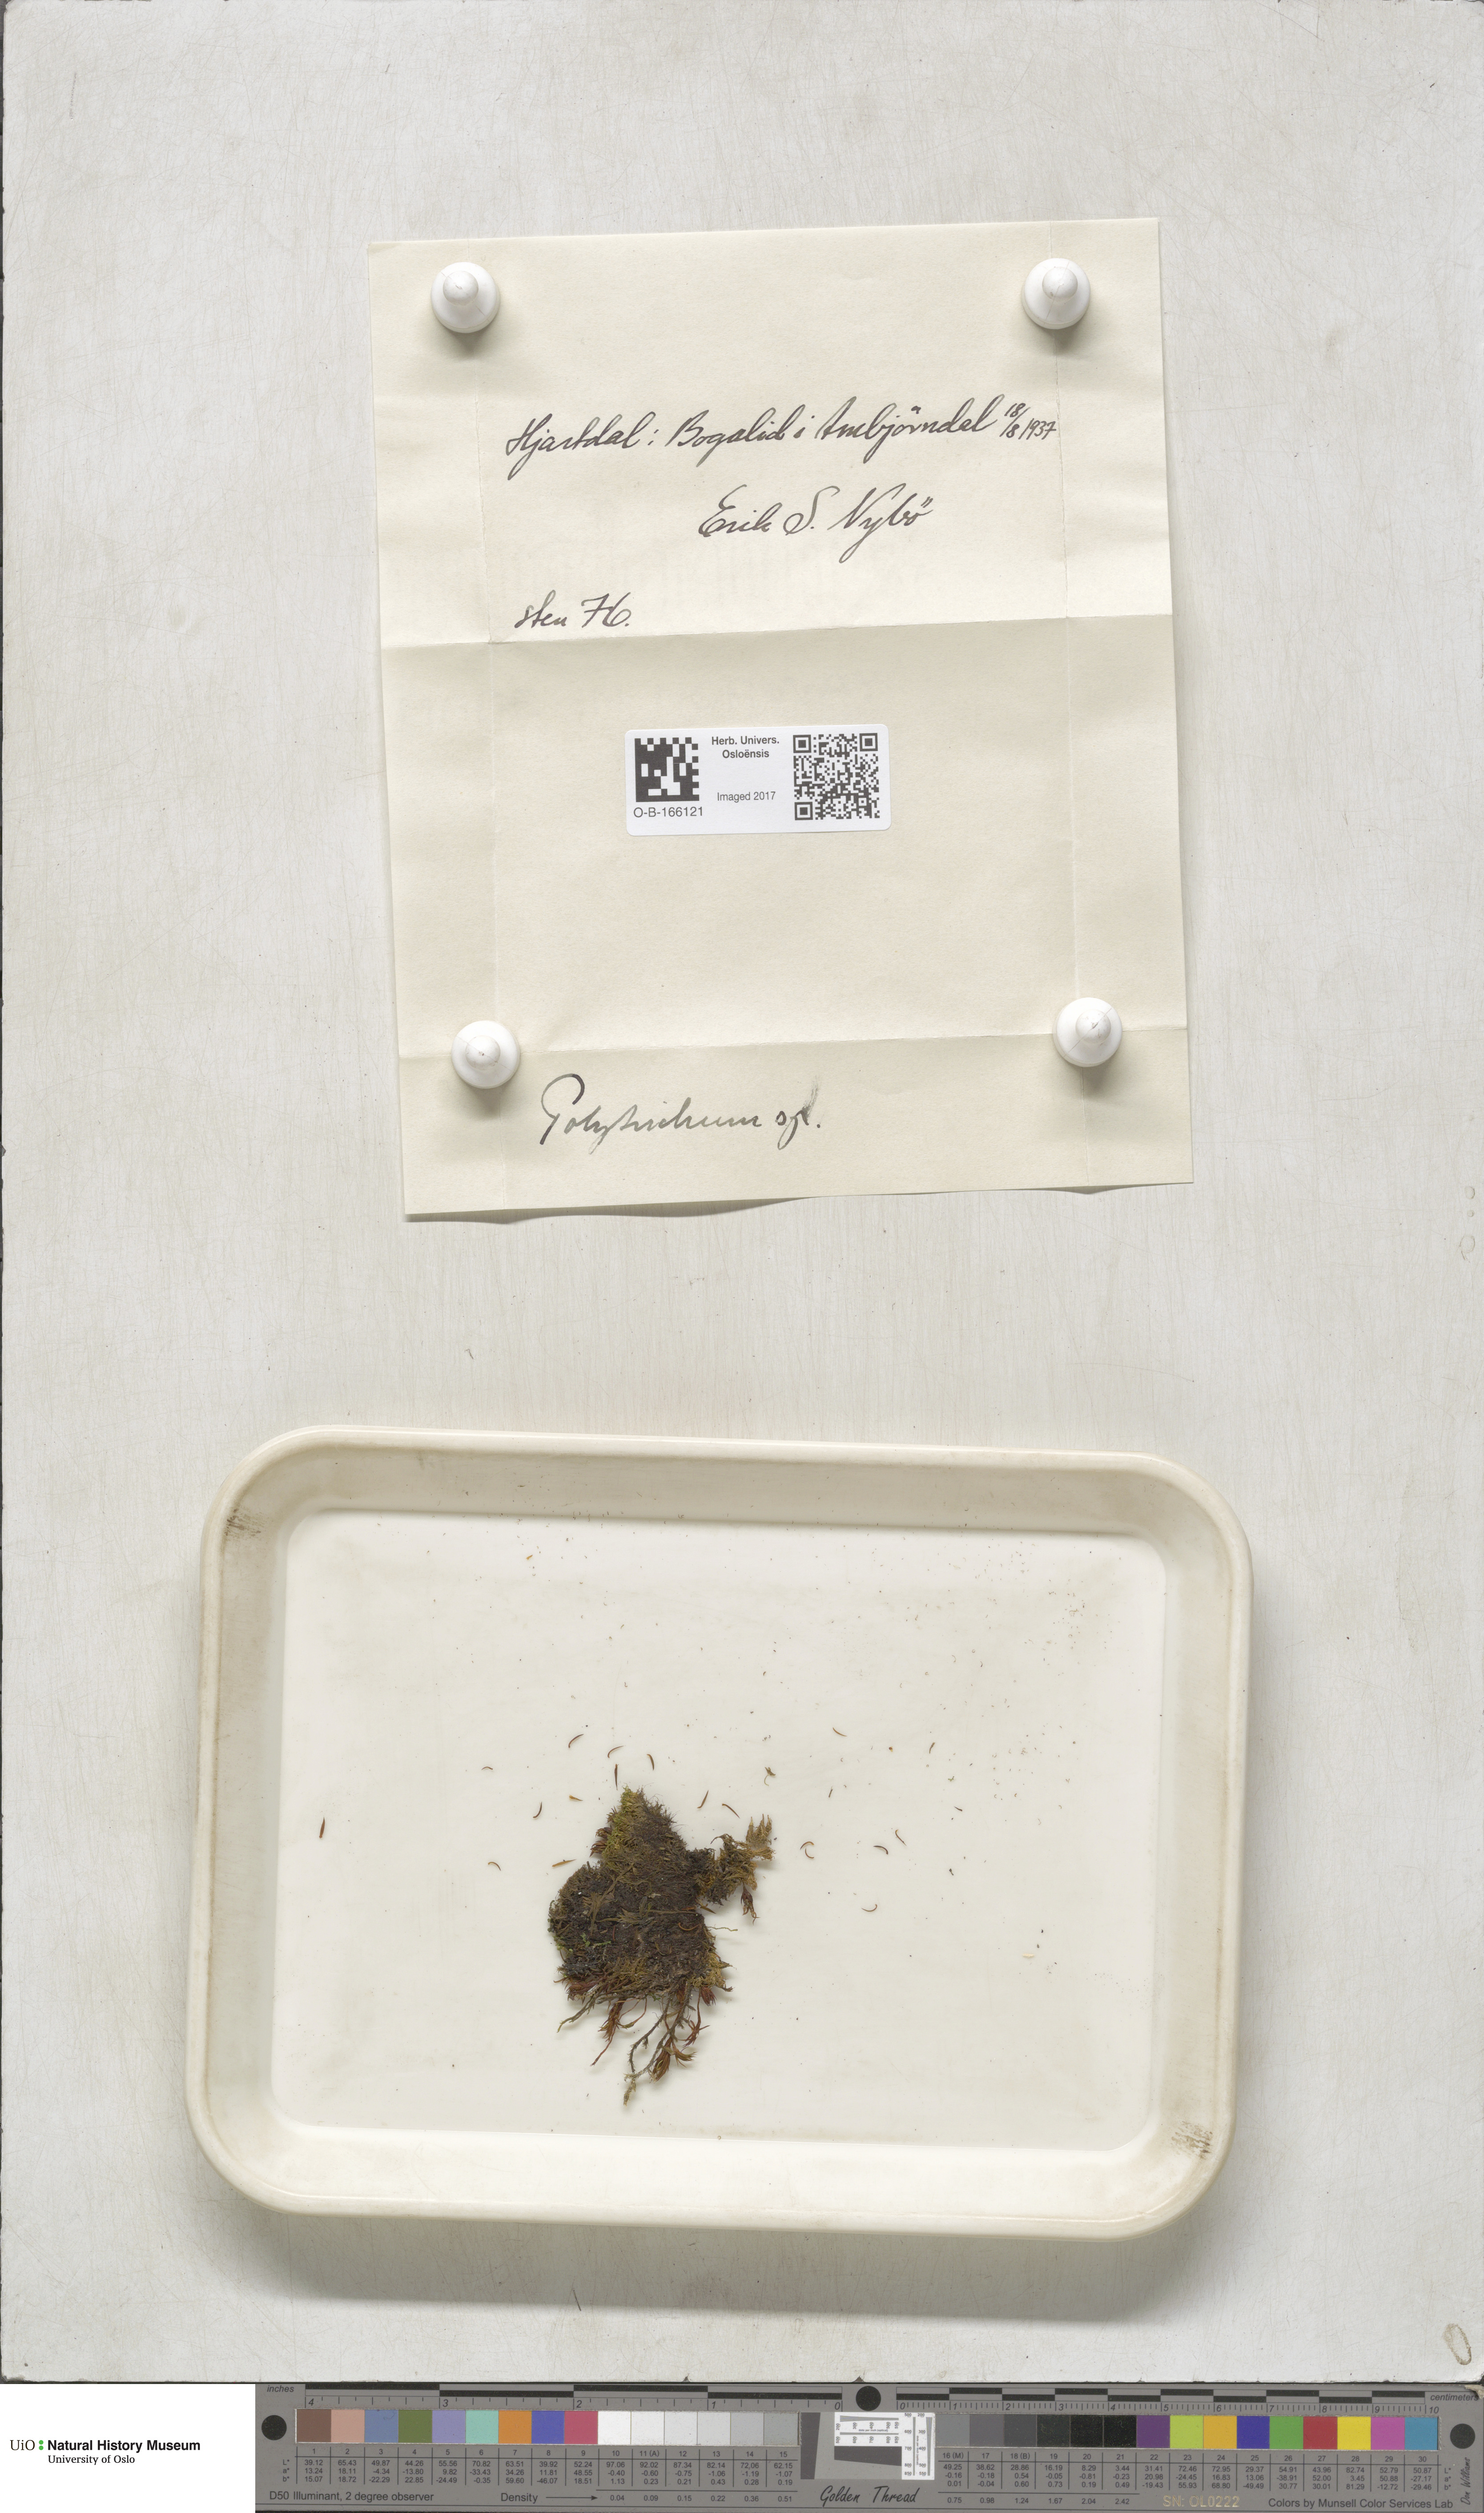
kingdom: Plantae
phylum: Bryophyta
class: Polytrichopsida
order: Polytrichales
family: Polytrichaceae
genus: Polytrichum
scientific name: Polytrichum
